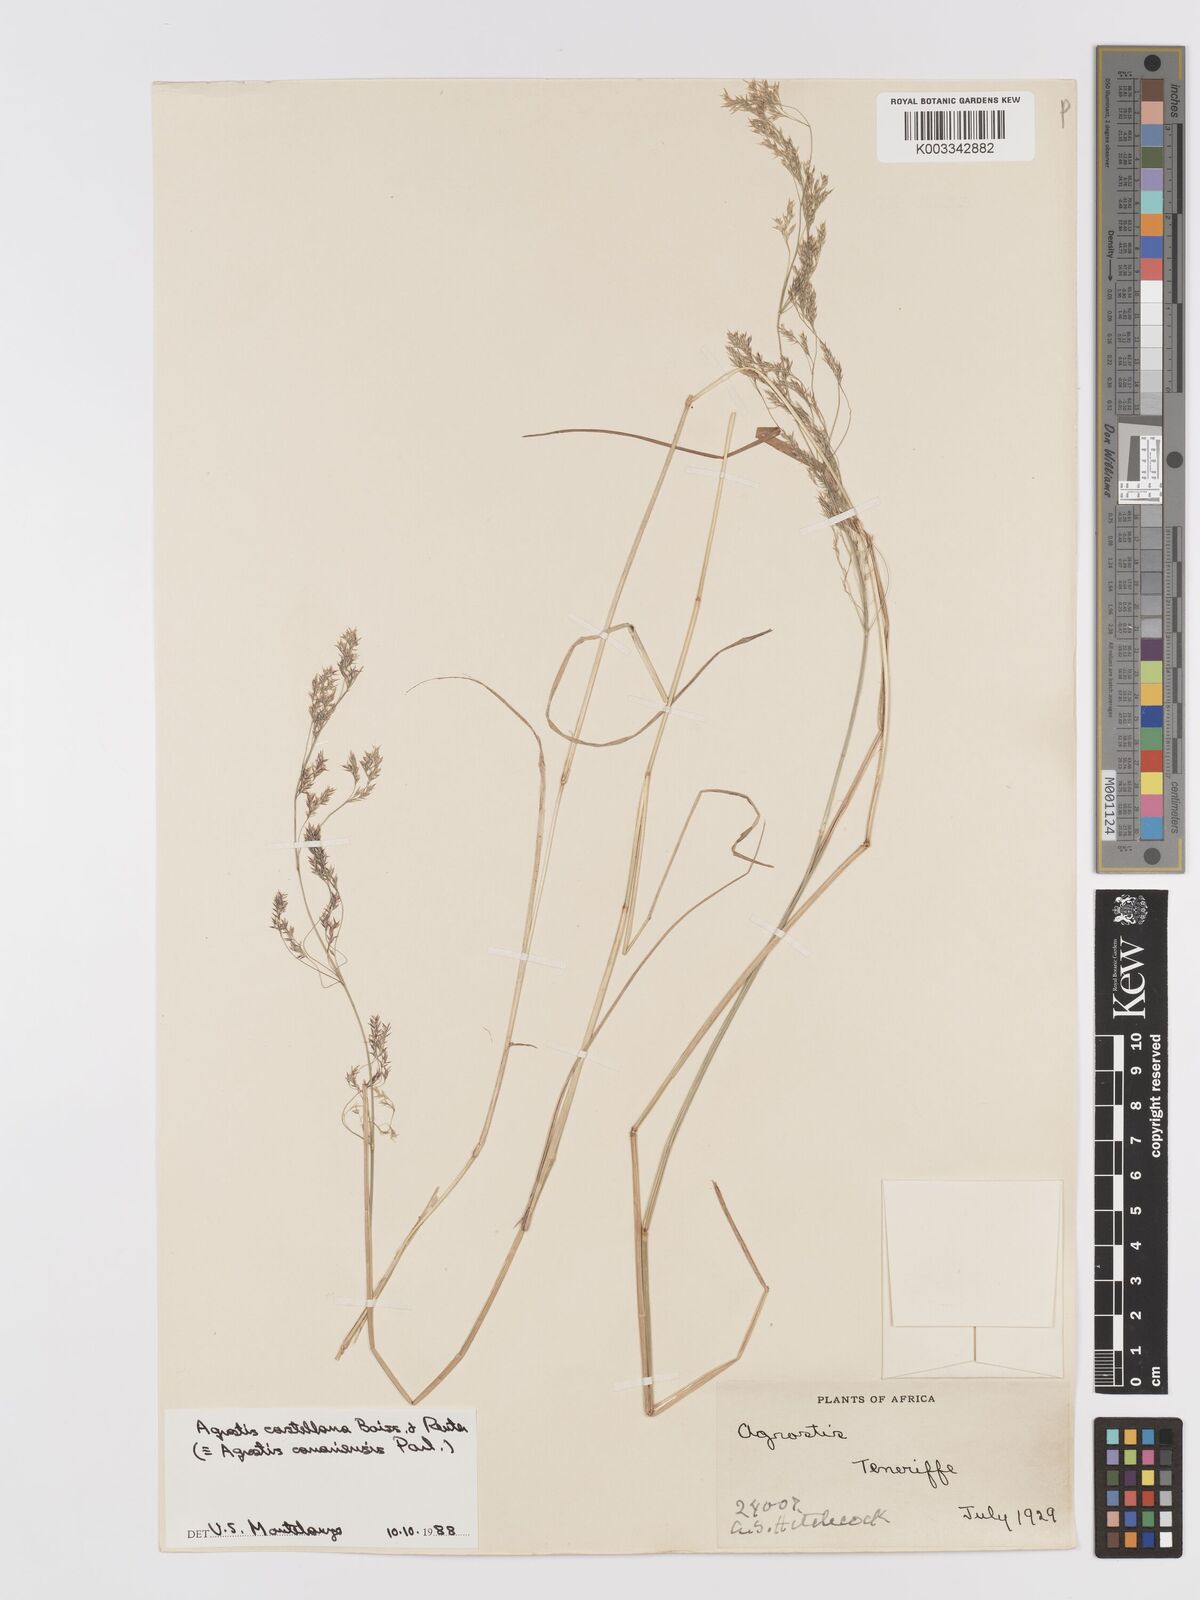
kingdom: Plantae
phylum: Tracheophyta
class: Liliopsida
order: Poales
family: Poaceae
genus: Agrostis
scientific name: Agrostis castellana
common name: Highland bent
